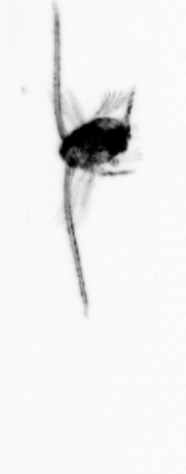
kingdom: Animalia
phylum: Arthropoda
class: Copepoda
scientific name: Copepoda
